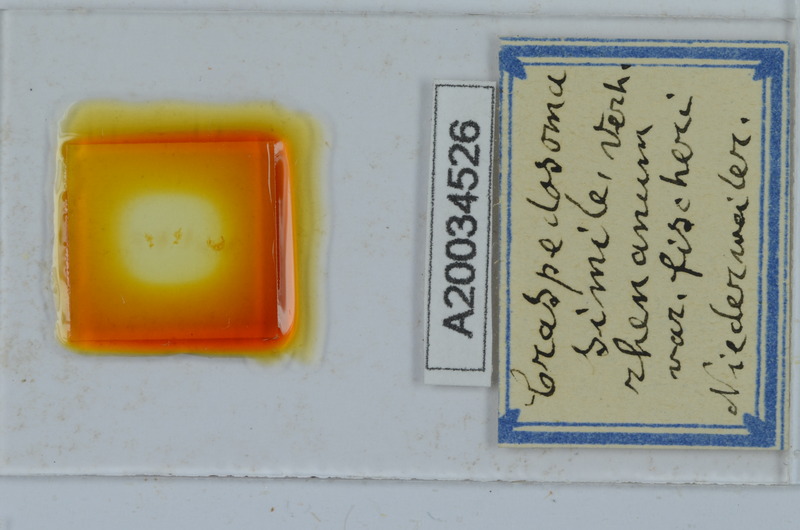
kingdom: Animalia
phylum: Arthropoda
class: Diplopoda
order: Chordeumatida
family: Craspedosomatidae
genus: Craspedosoma
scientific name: Craspedosoma rawlinsii
